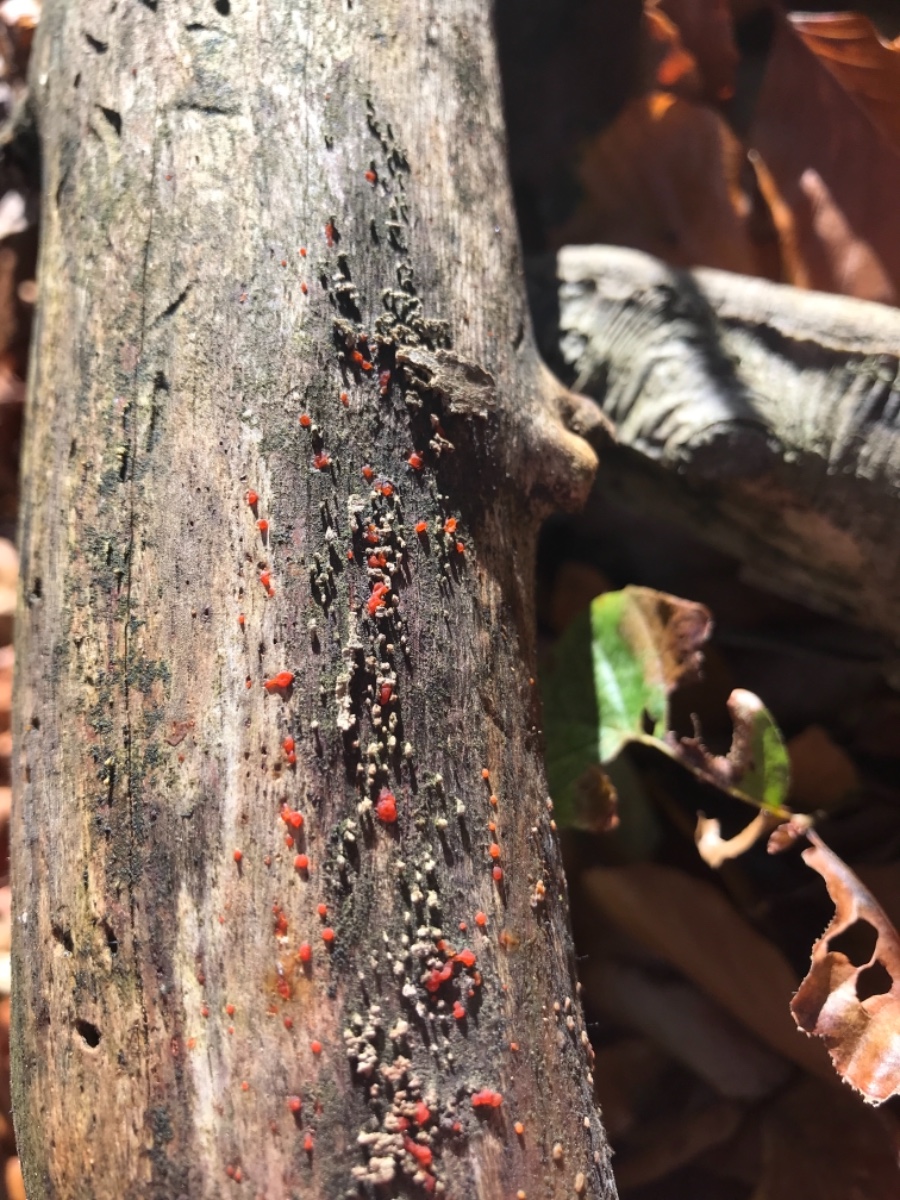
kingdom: Fungi
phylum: Basidiomycota
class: Dacrymycetes
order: Dacrymycetales
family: Dacrymycetaceae
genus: Dacrymyces
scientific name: Dacrymyces
